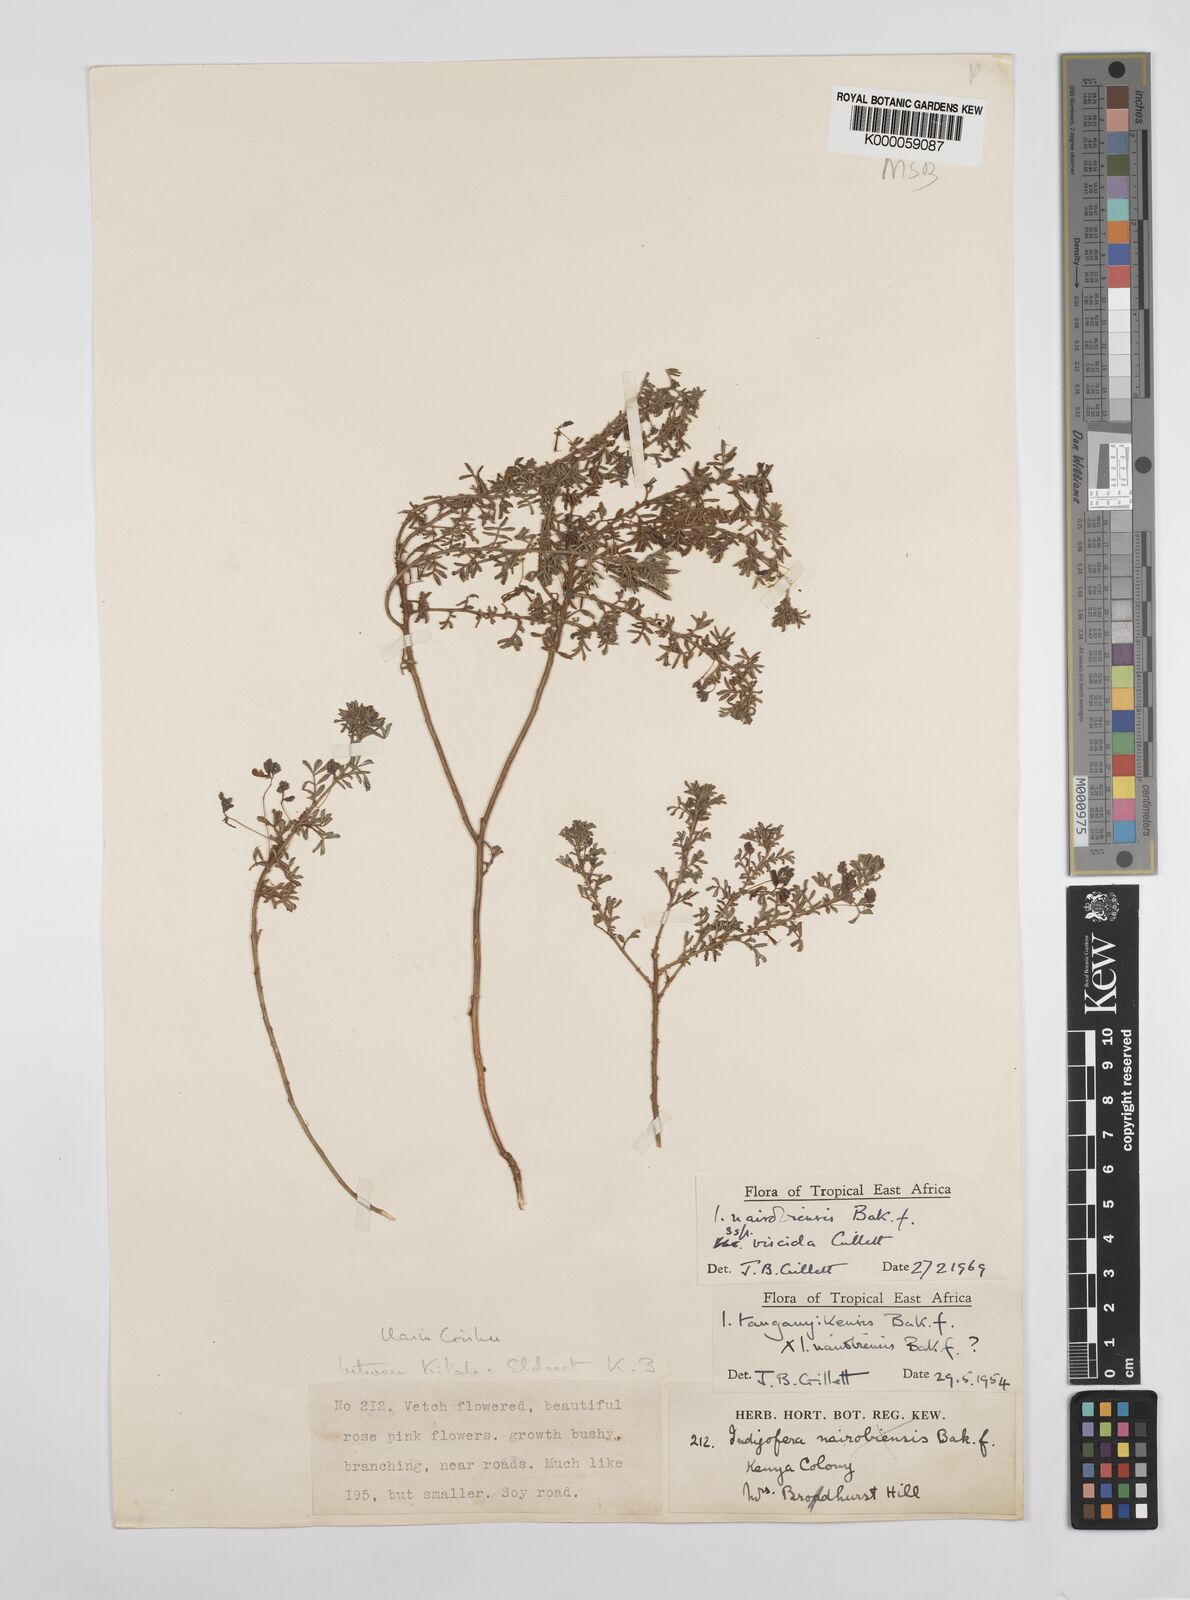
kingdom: Plantae
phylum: Tracheophyta
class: Magnoliopsida
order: Fabales
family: Fabaceae
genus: Indigofera
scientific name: Indigofera nairobiensis
